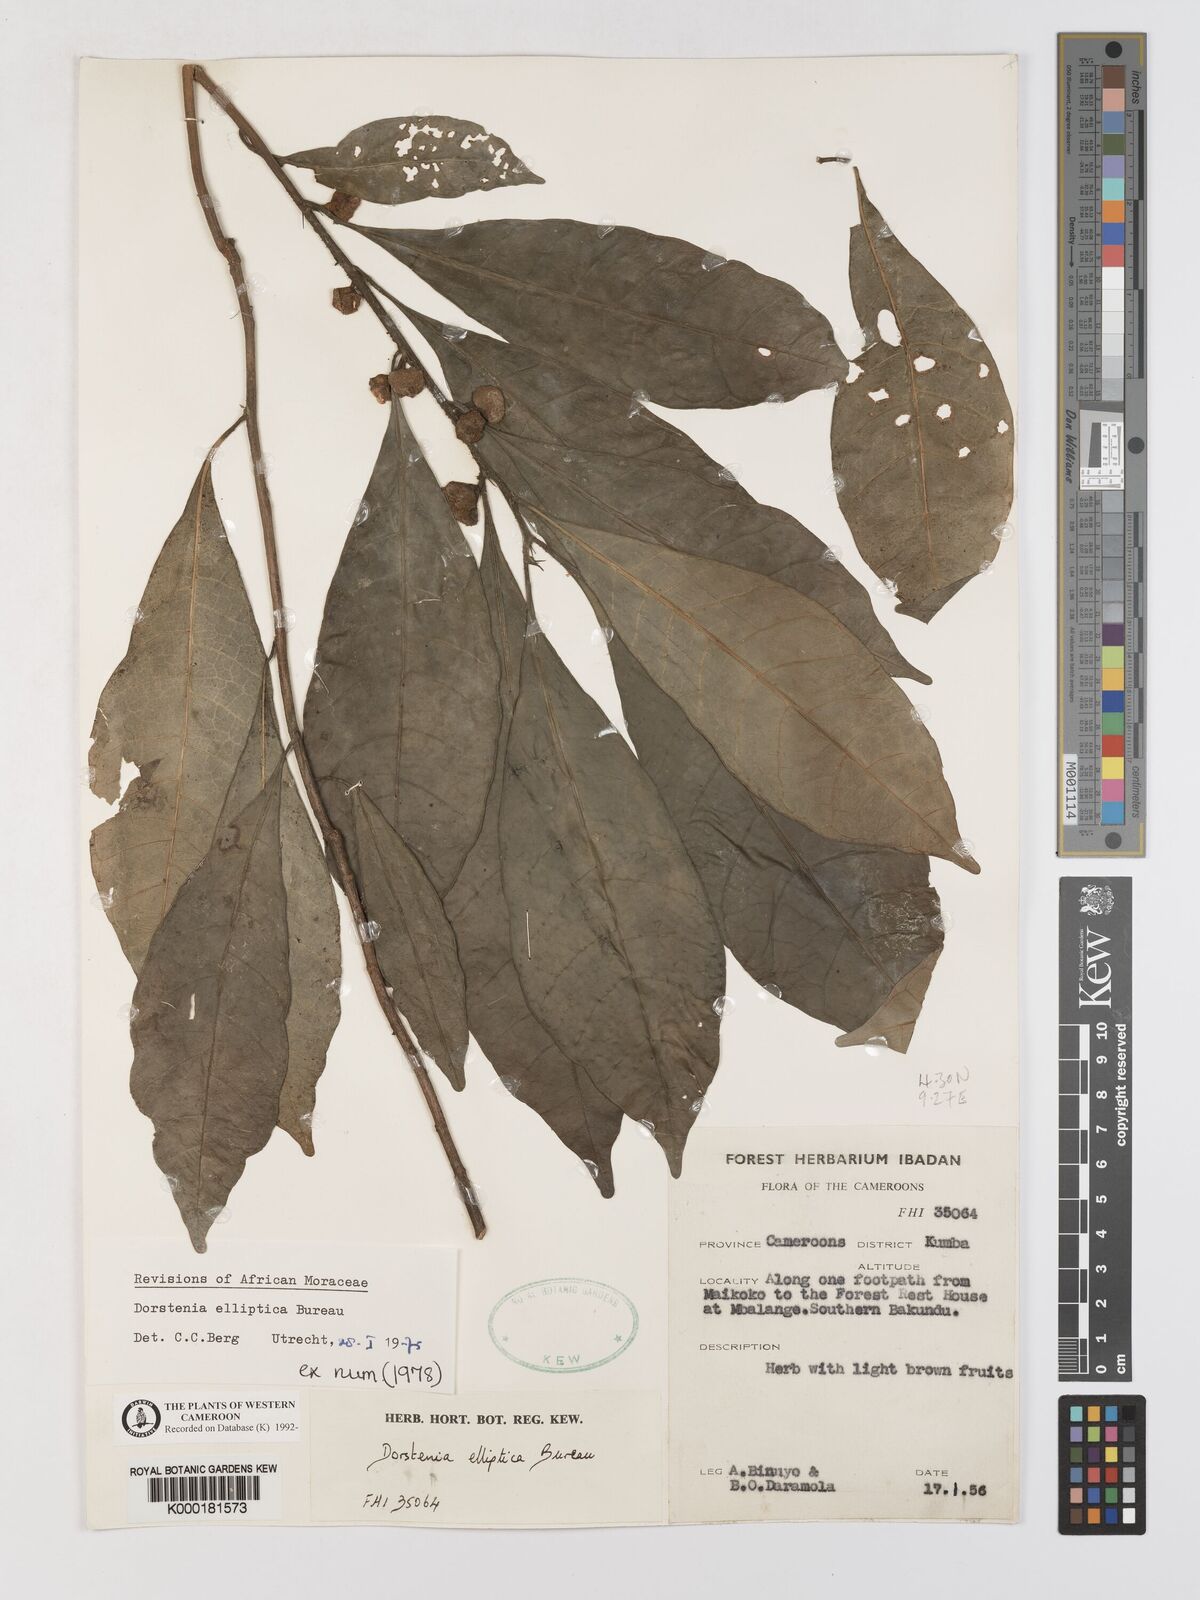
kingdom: Plantae
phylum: Tracheophyta
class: Magnoliopsida
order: Rosales
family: Moraceae
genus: Dorstenia
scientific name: Dorstenia elliptica
